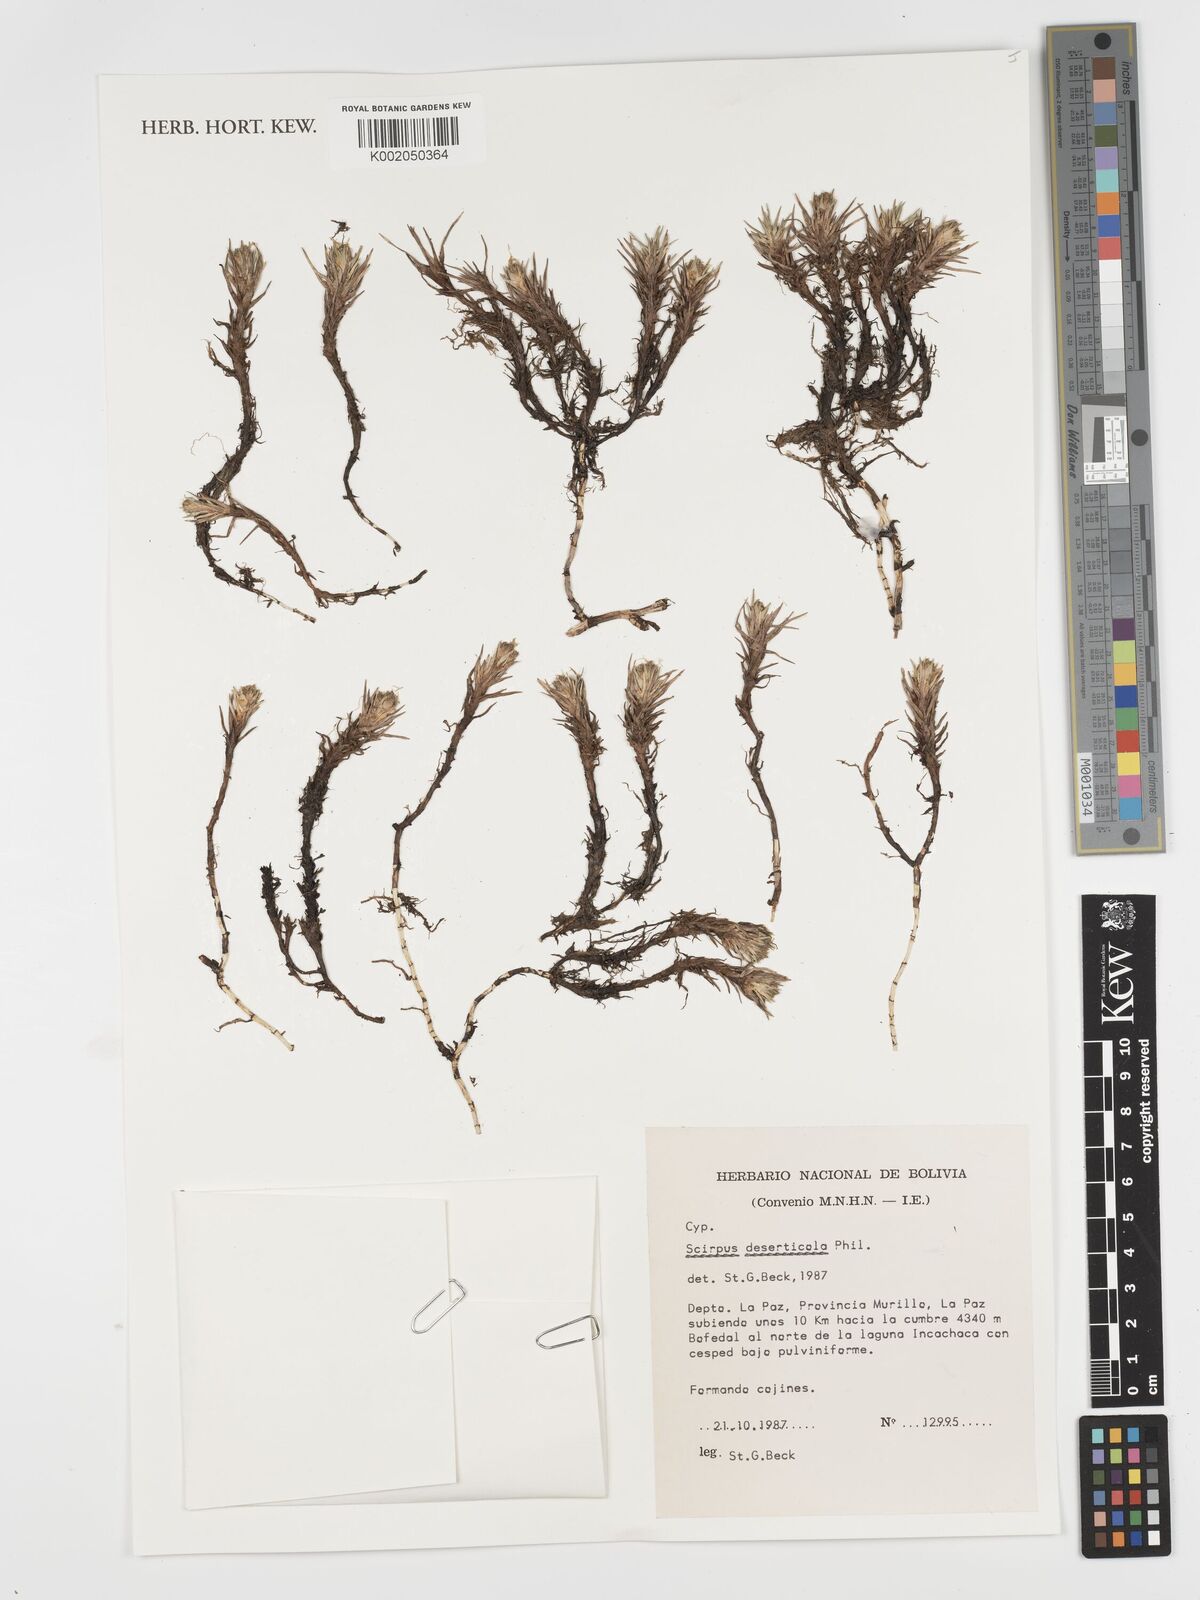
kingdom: Plantae
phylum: Tracheophyta
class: Liliopsida
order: Poales
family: Cyperaceae
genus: Phylloscirpus
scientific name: Phylloscirpus deserticola
